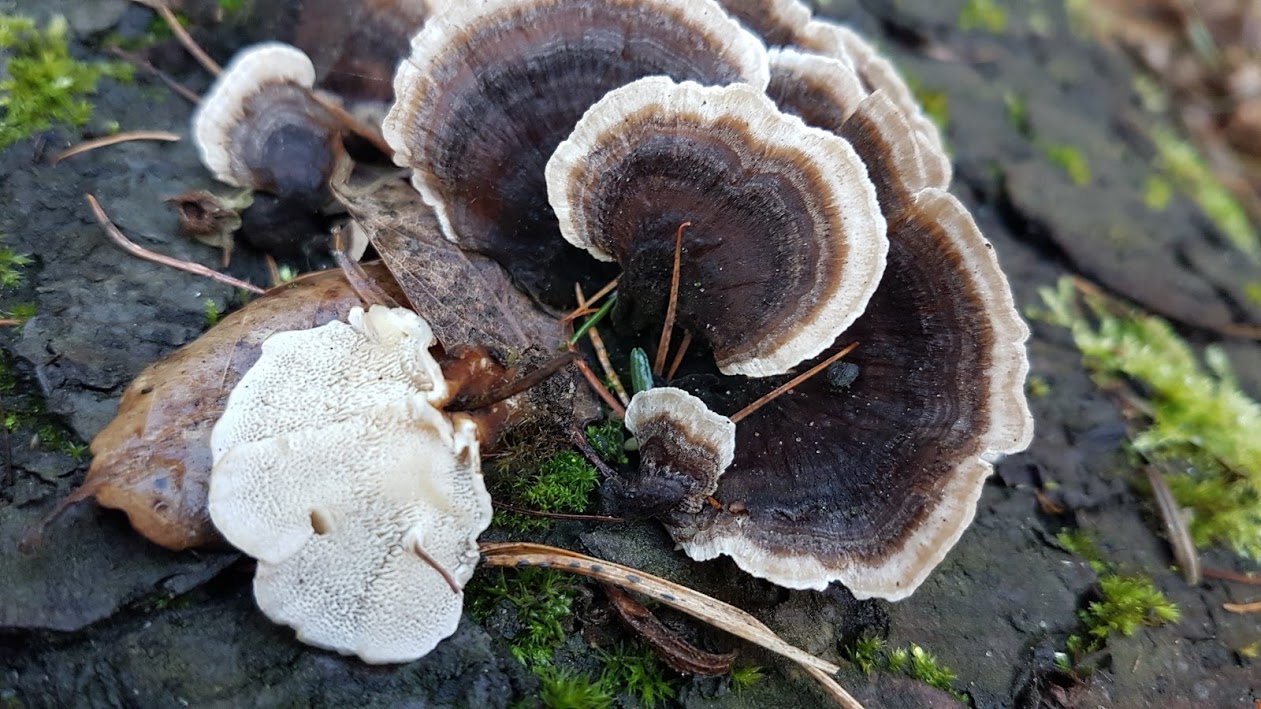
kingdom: Fungi
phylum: Basidiomycota
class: Agaricomycetes
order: Polyporales
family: Polyporaceae
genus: Trametes
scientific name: Trametes versicolor
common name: broget læderporesvamp
